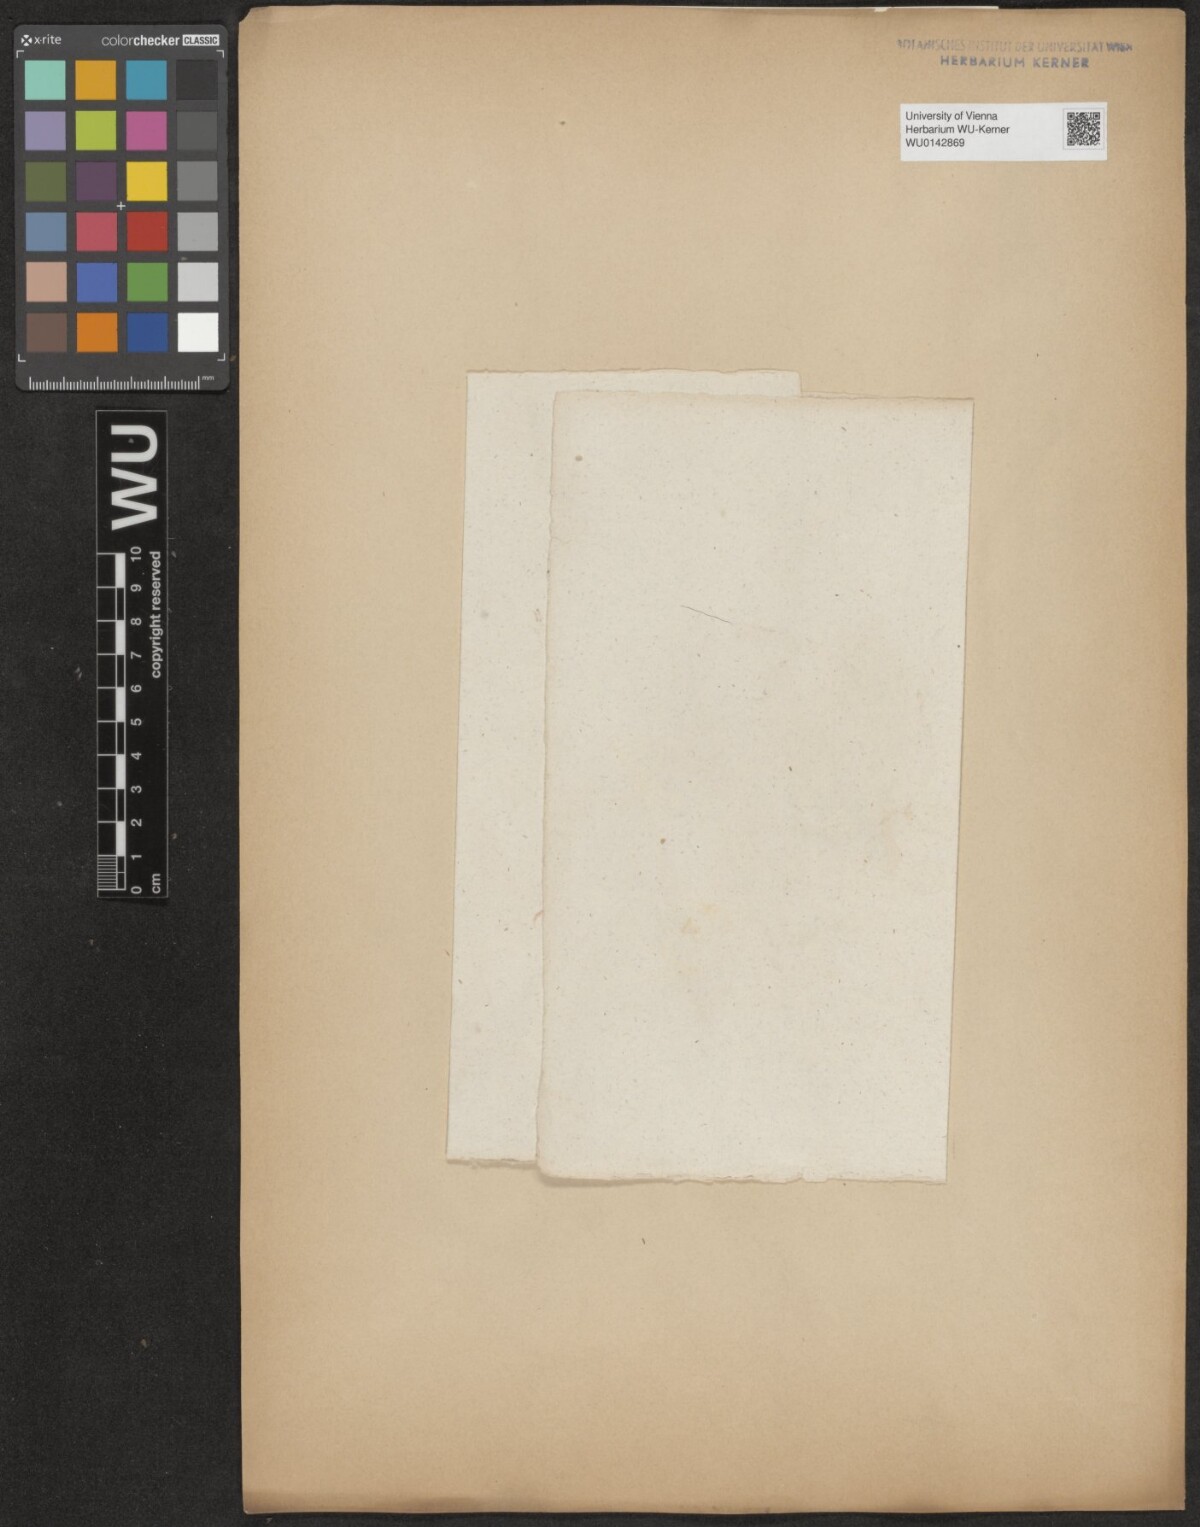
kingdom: Plantae
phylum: Tracheophyta
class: Magnoliopsida
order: Malpighiales
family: Salicaceae
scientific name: Salicaceae
